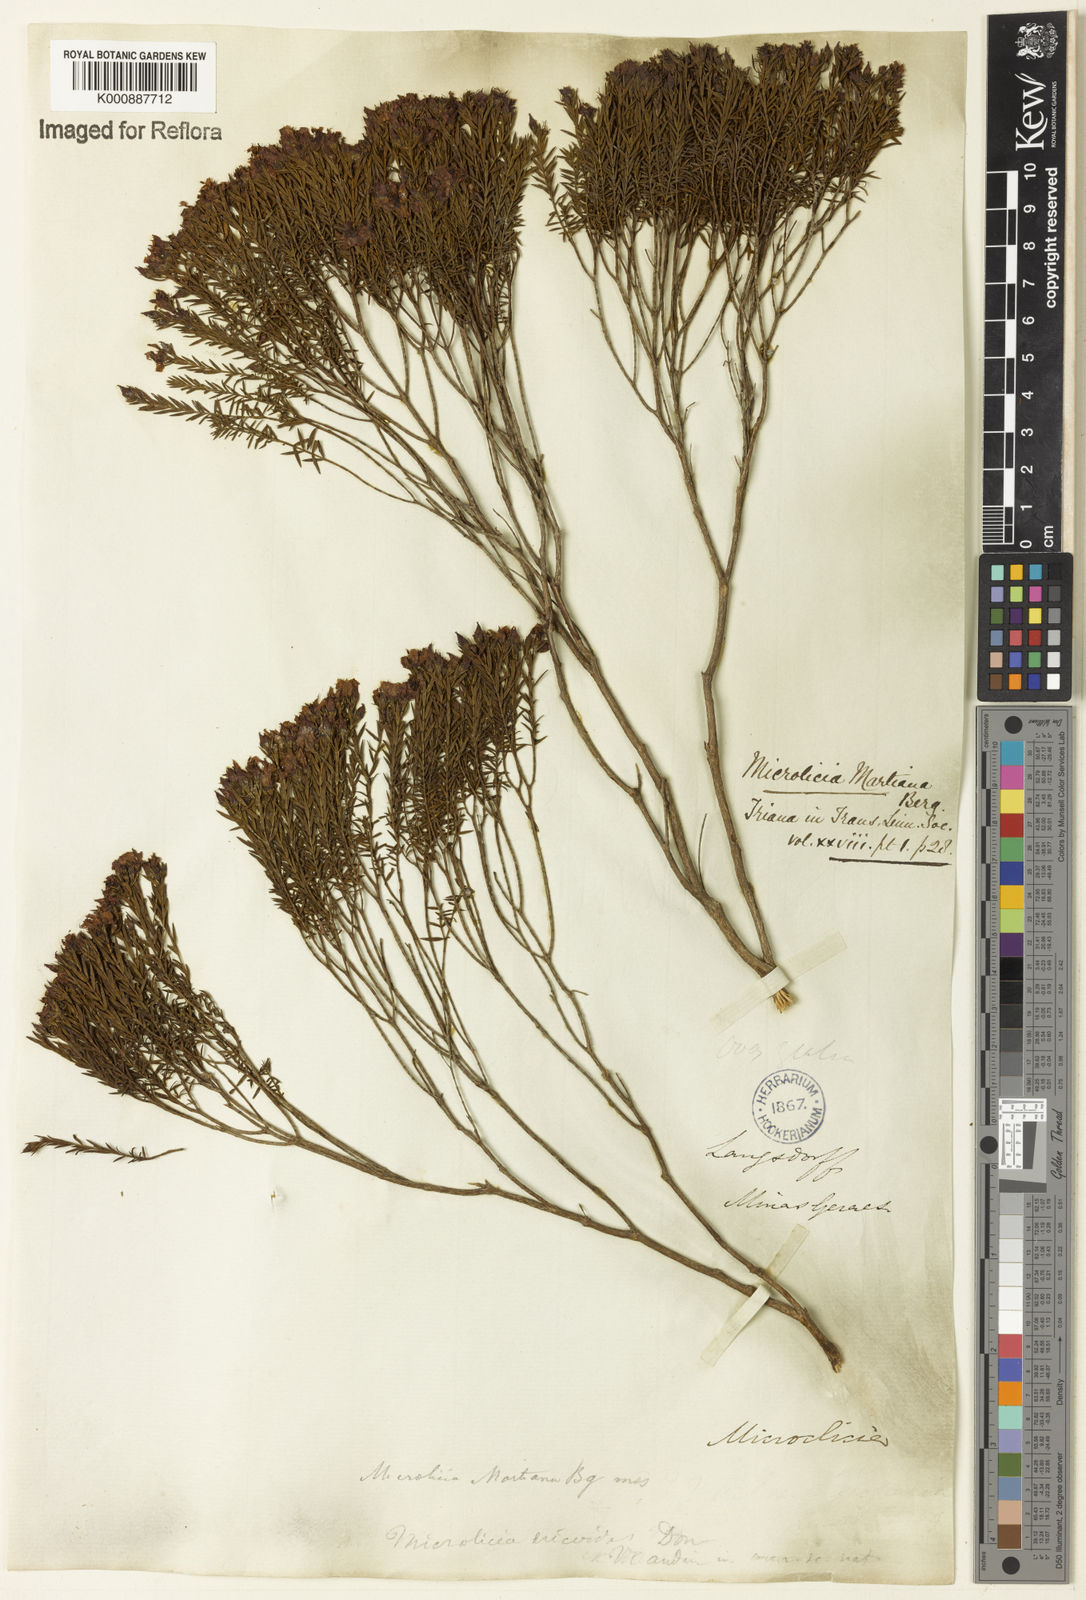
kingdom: Plantae
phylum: Tracheophyta
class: Magnoliopsida
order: Myrtales
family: Melastomataceae
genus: Microlicia
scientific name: Microlicia martiana
